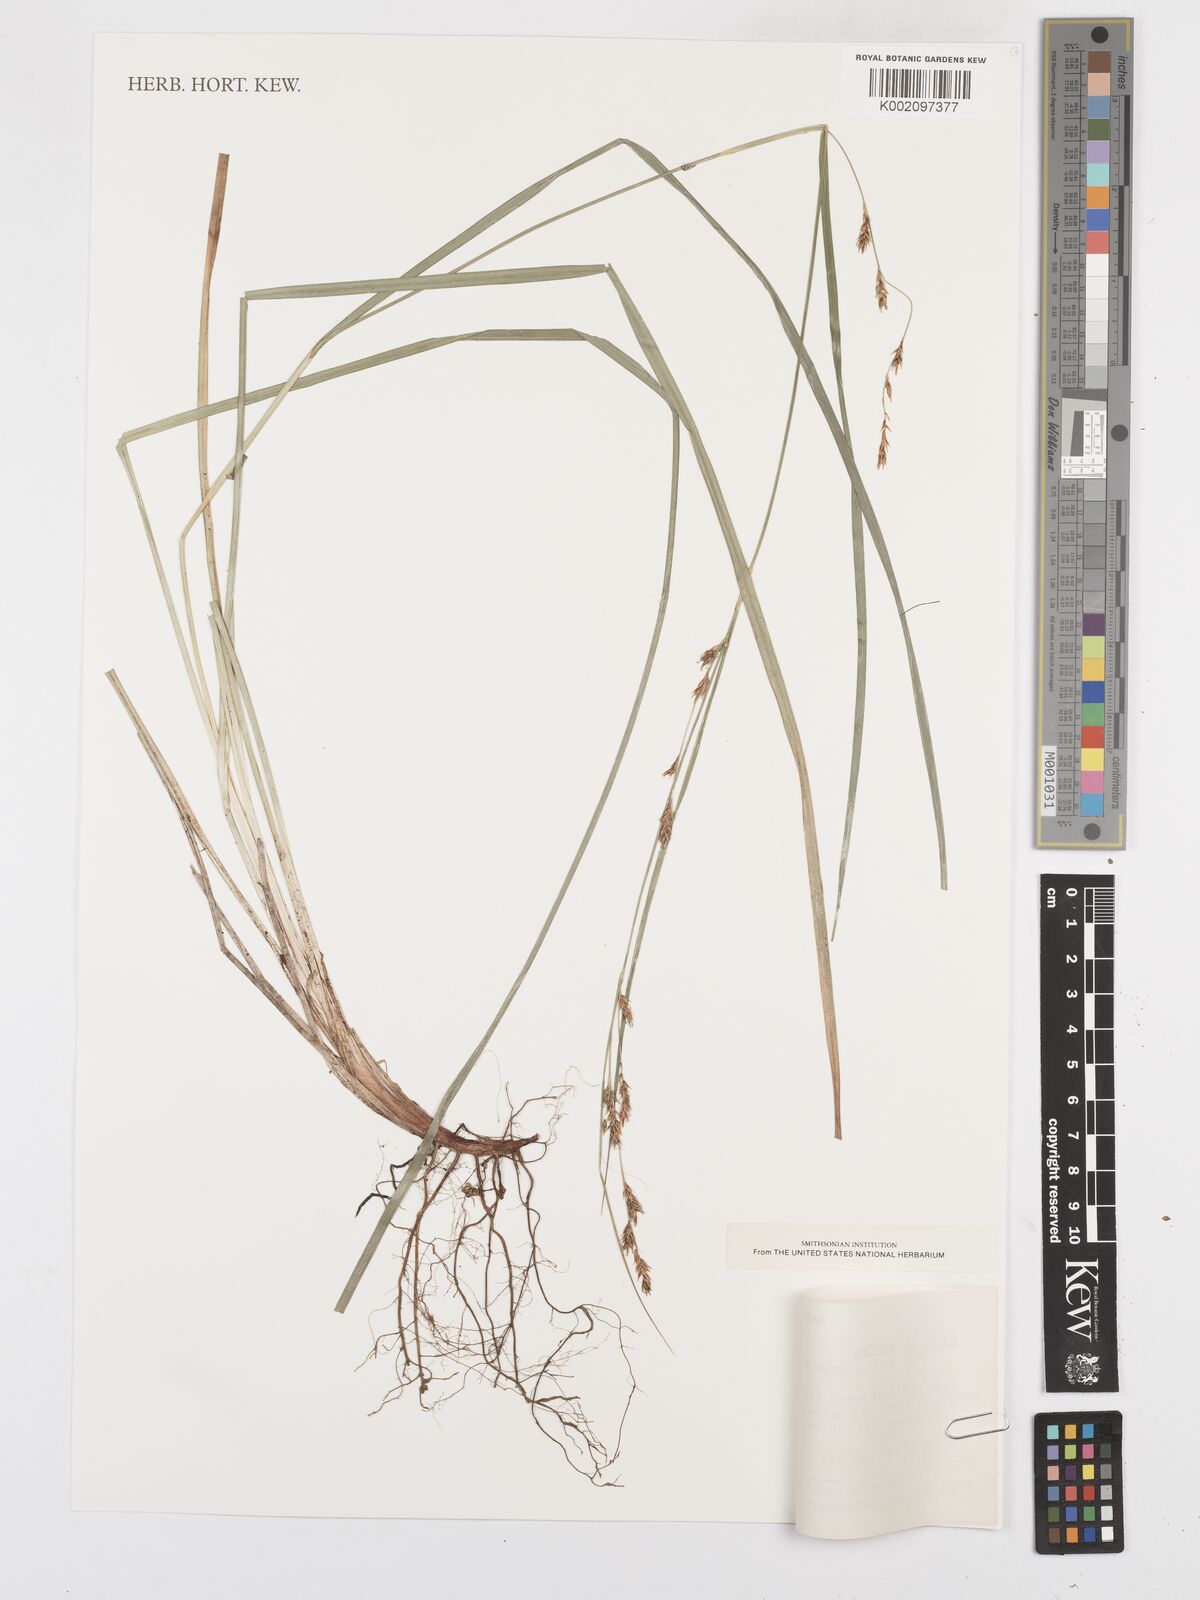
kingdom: Plantae
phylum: Tracheophyta
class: Liliopsida
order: Poales
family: Cyperaceae
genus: Carex
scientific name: Carex proxima
